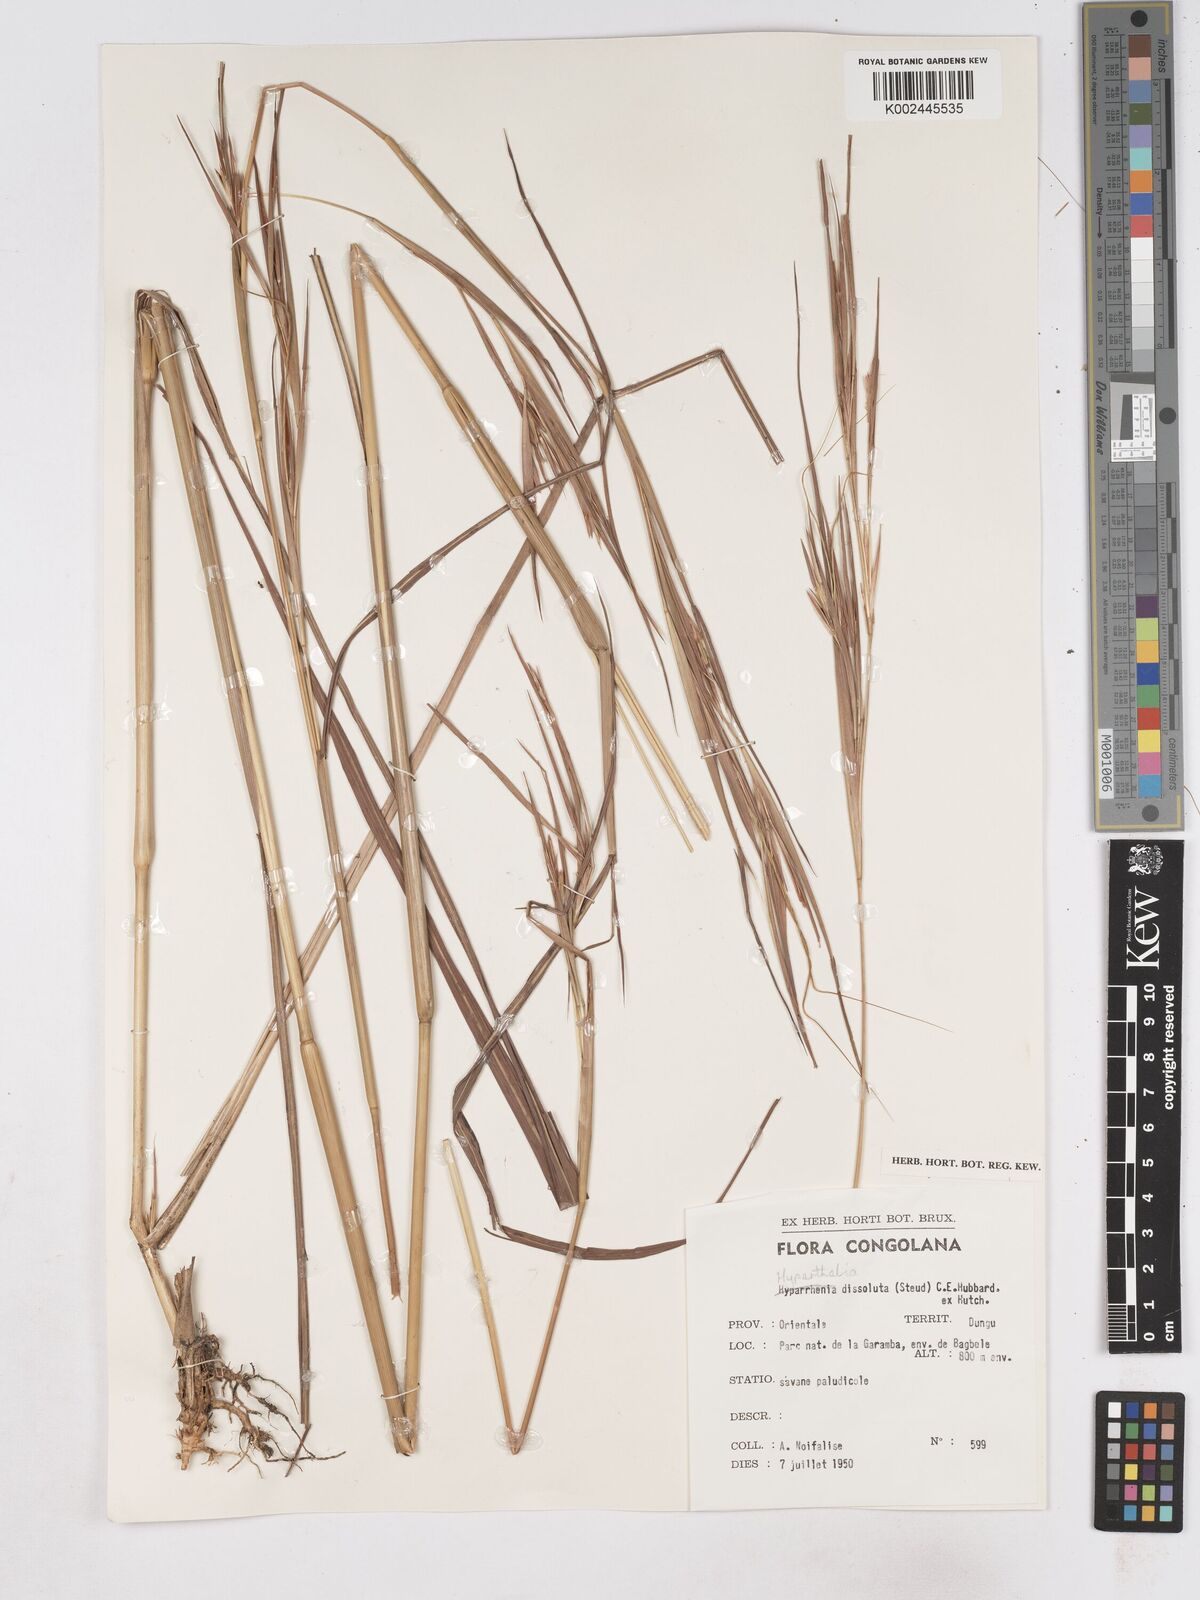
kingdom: Plantae
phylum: Tracheophyta
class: Liliopsida
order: Poales
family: Poaceae
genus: Hyperthelia
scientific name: Hyperthelia dissoluta
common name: Yellow thatching grass
